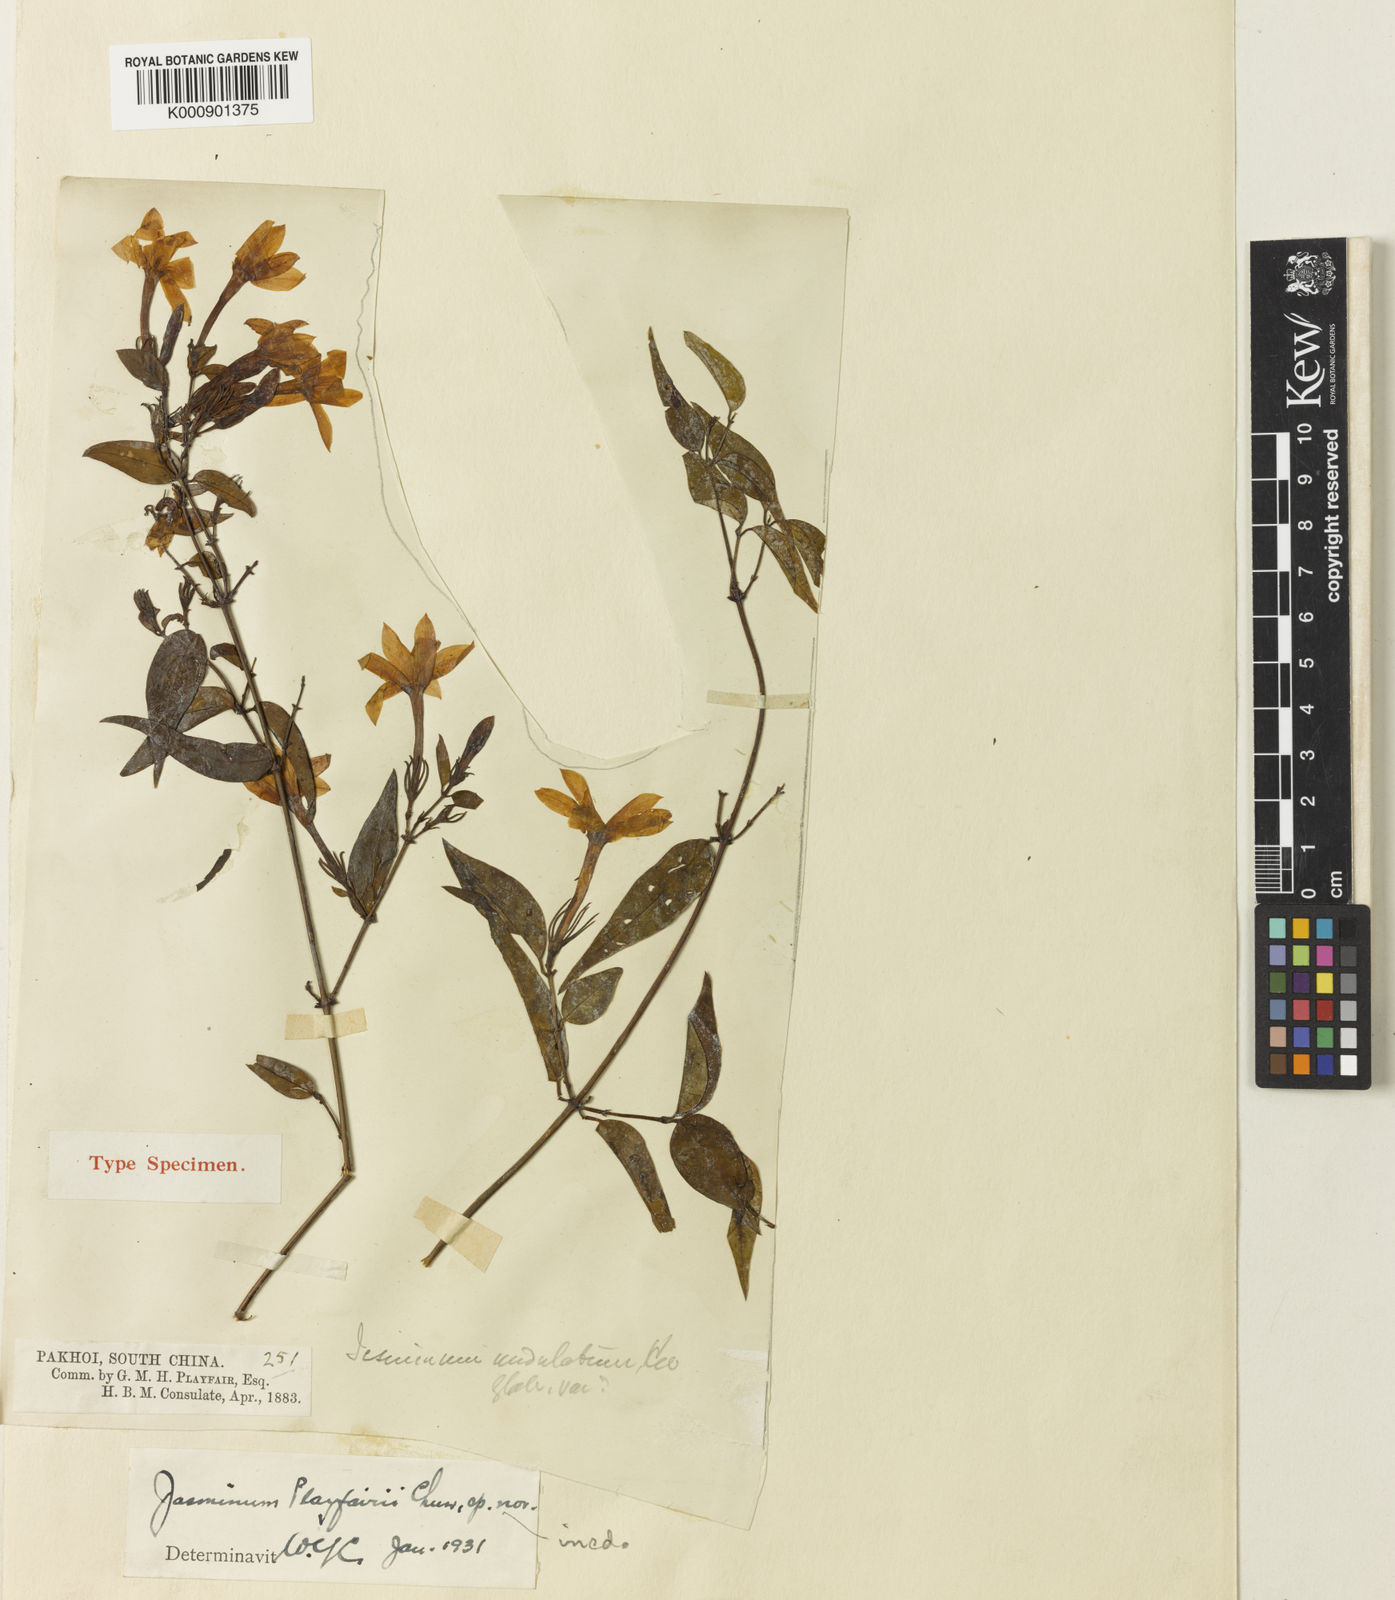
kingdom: Plantae
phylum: Tracheophyta
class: Magnoliopsida
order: Lamiales
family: Oleaceae
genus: Jasminum
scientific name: Jasminum nervosum
